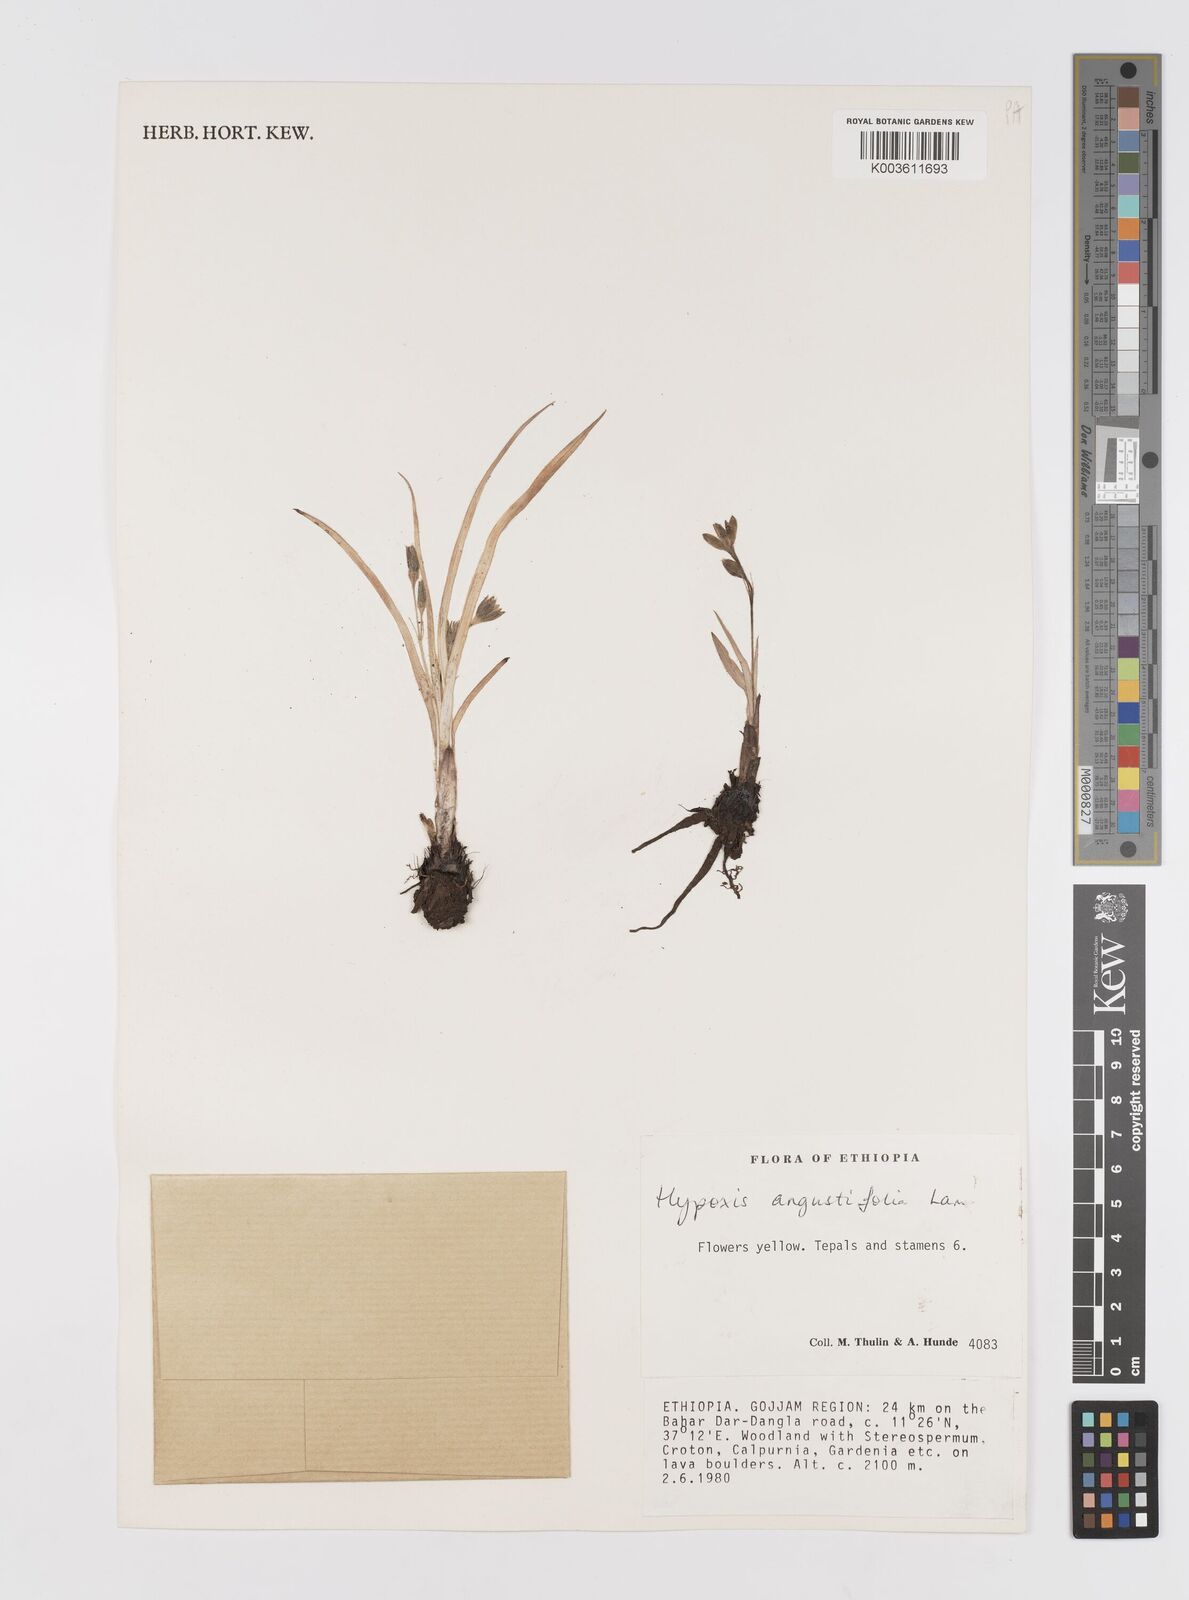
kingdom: Plantae
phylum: Tracheophyta
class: Liliopsida
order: Asparagales
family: Hypoxidaceae
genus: Hypoxis
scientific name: Hypoxis
